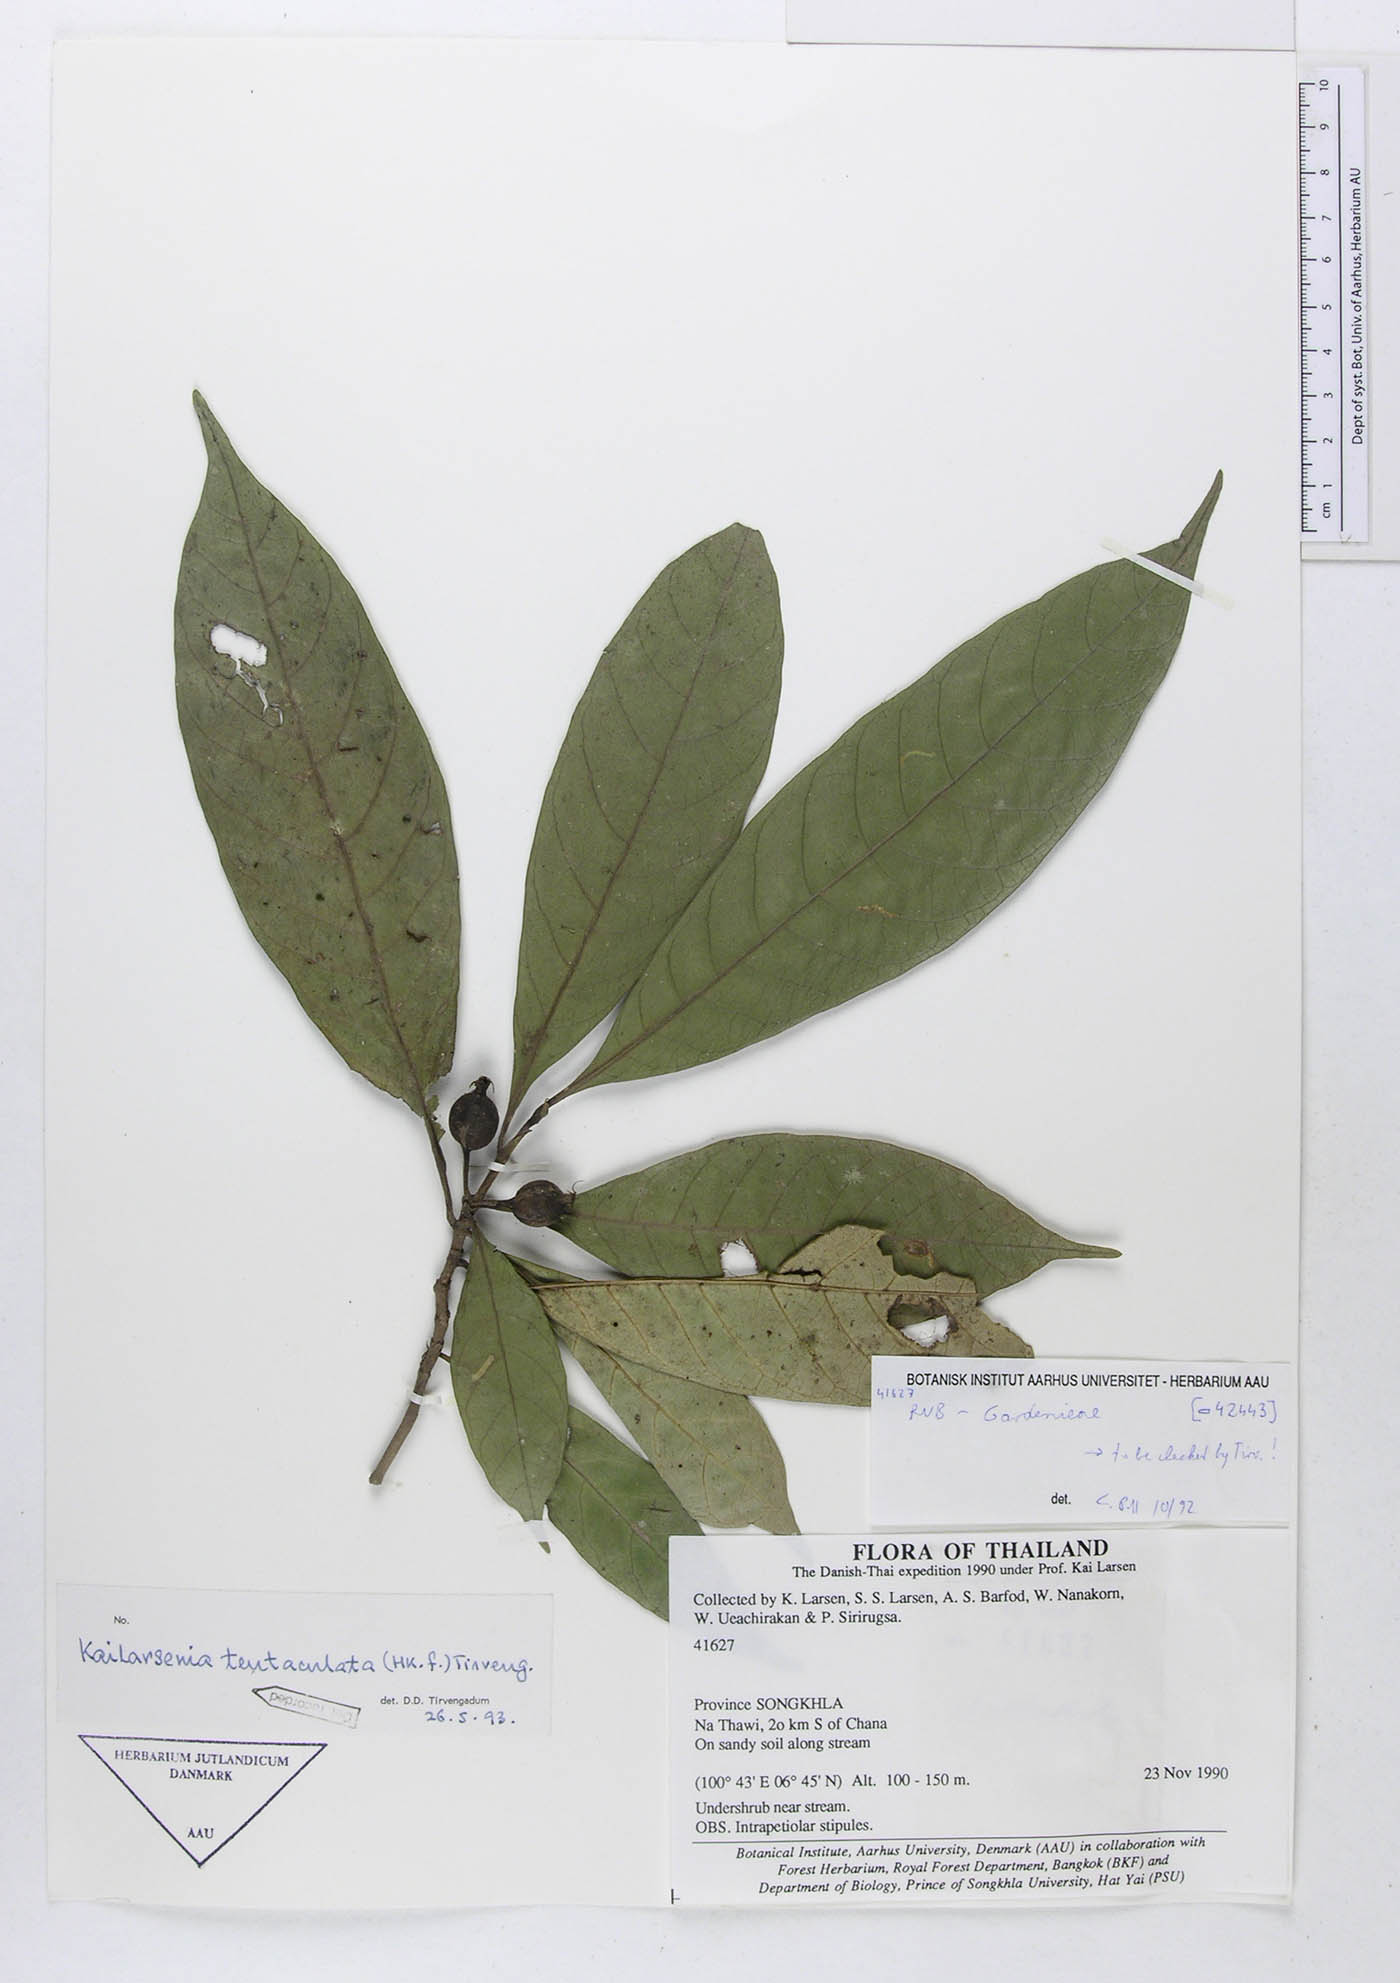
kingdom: Plantae
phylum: Tracheophyta
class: Magnoliopsida
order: Gentianales
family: Rubiaceae
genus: Kailarsenia
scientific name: Kailarsenia tentaculata
